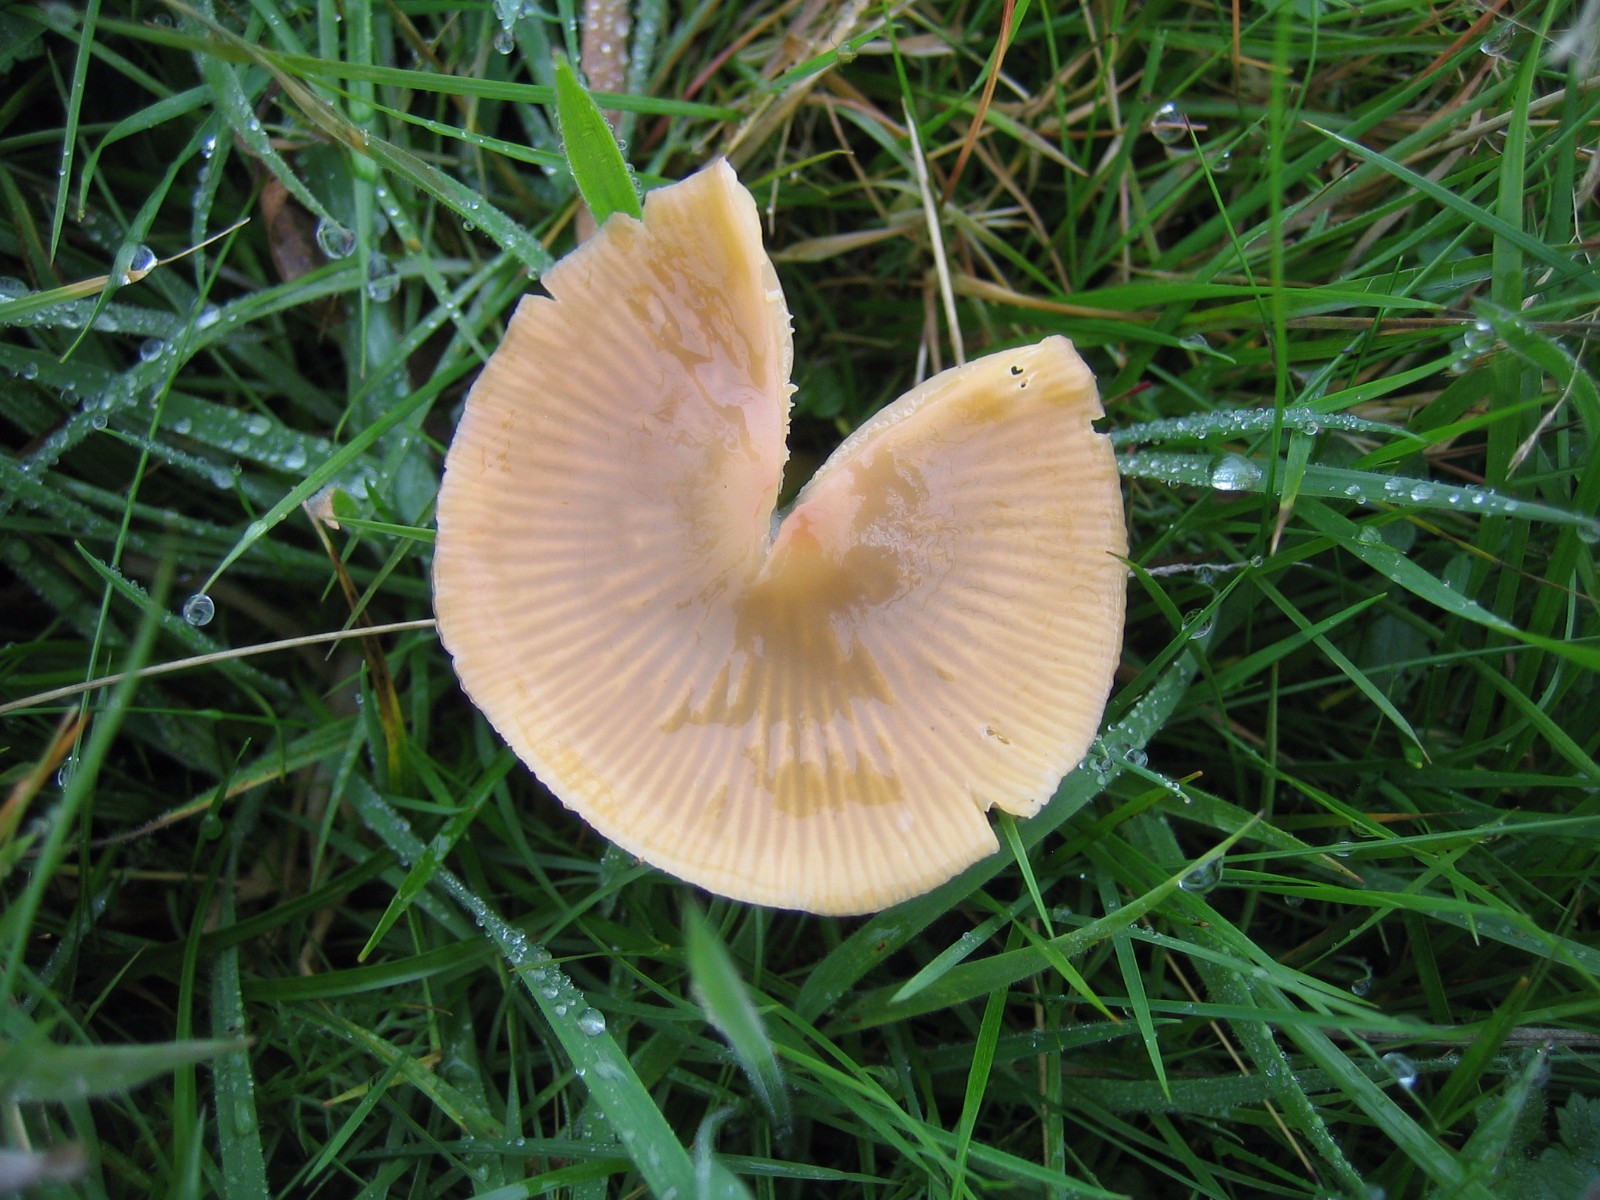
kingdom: Fungi
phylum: Basidiomycota
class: Agaricomycetes
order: Agaricales
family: Hygrophoraceae
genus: Gliophorus
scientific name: Gliophorus psittacinus
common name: papegøje-vokshat
